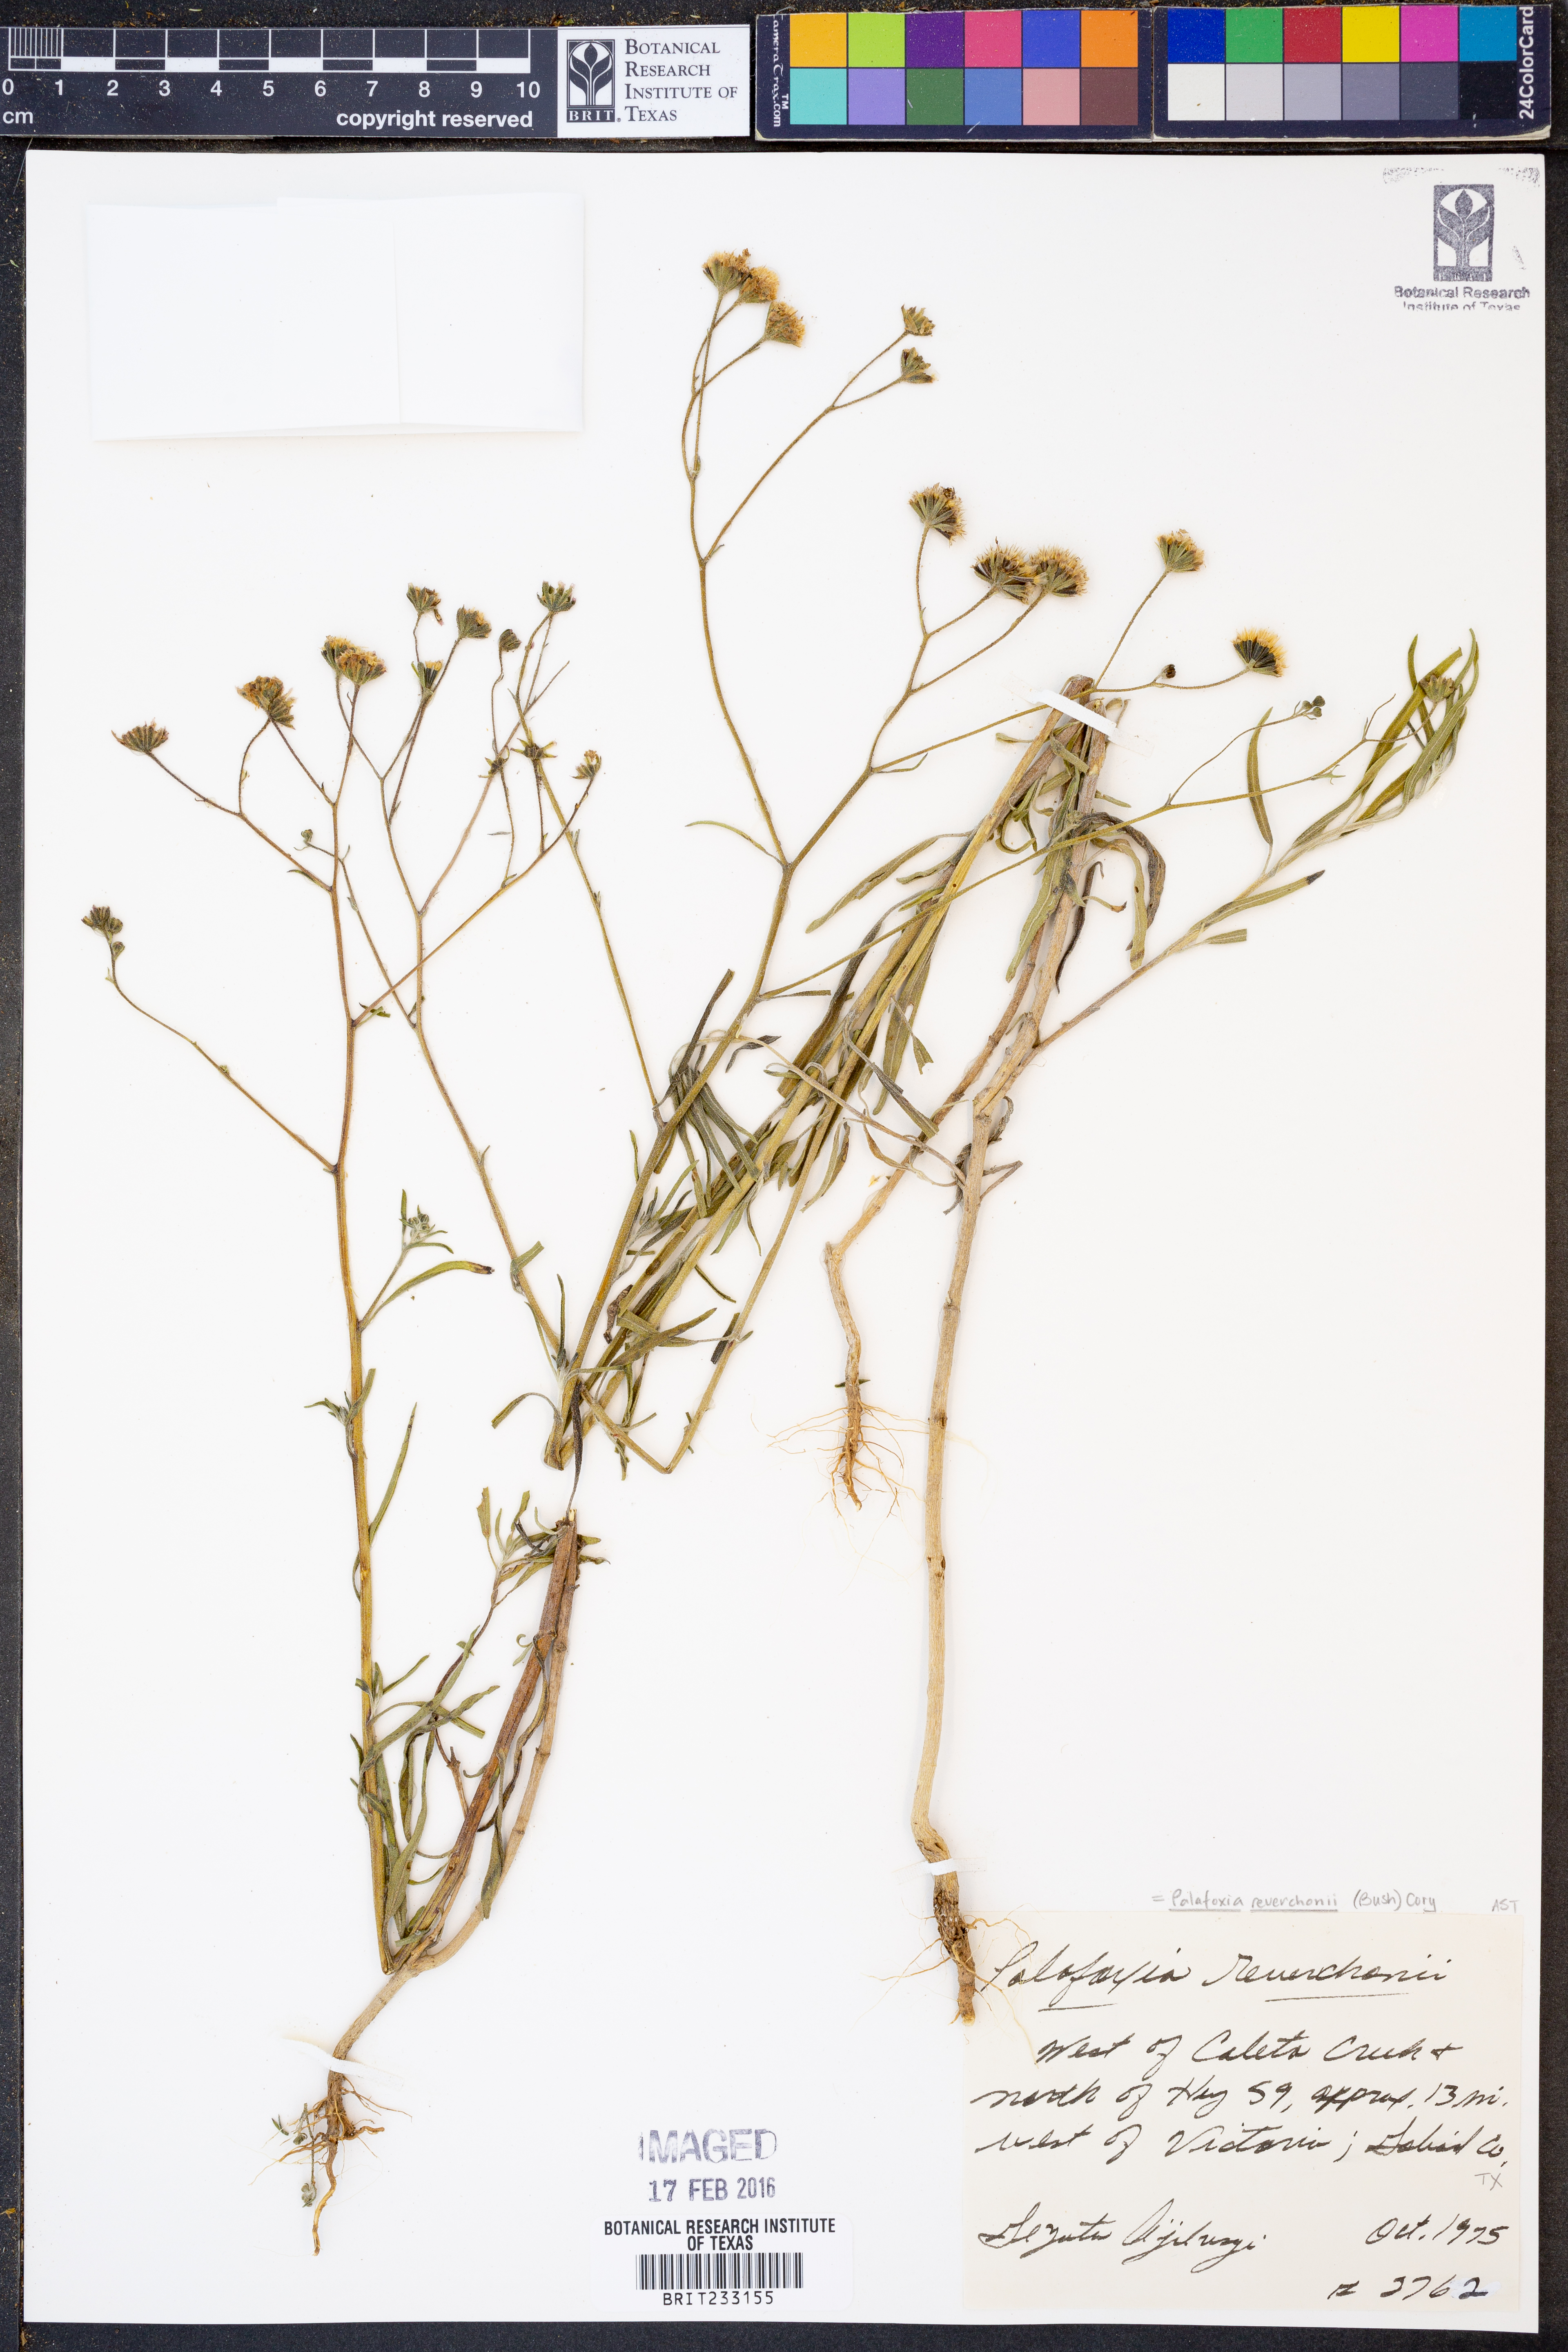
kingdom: Plantae
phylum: Tracheophyta
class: Magnoliopsida
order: Asterales
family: Asteraceae
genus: Palafoxia
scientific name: Palafoxia reverchonii
